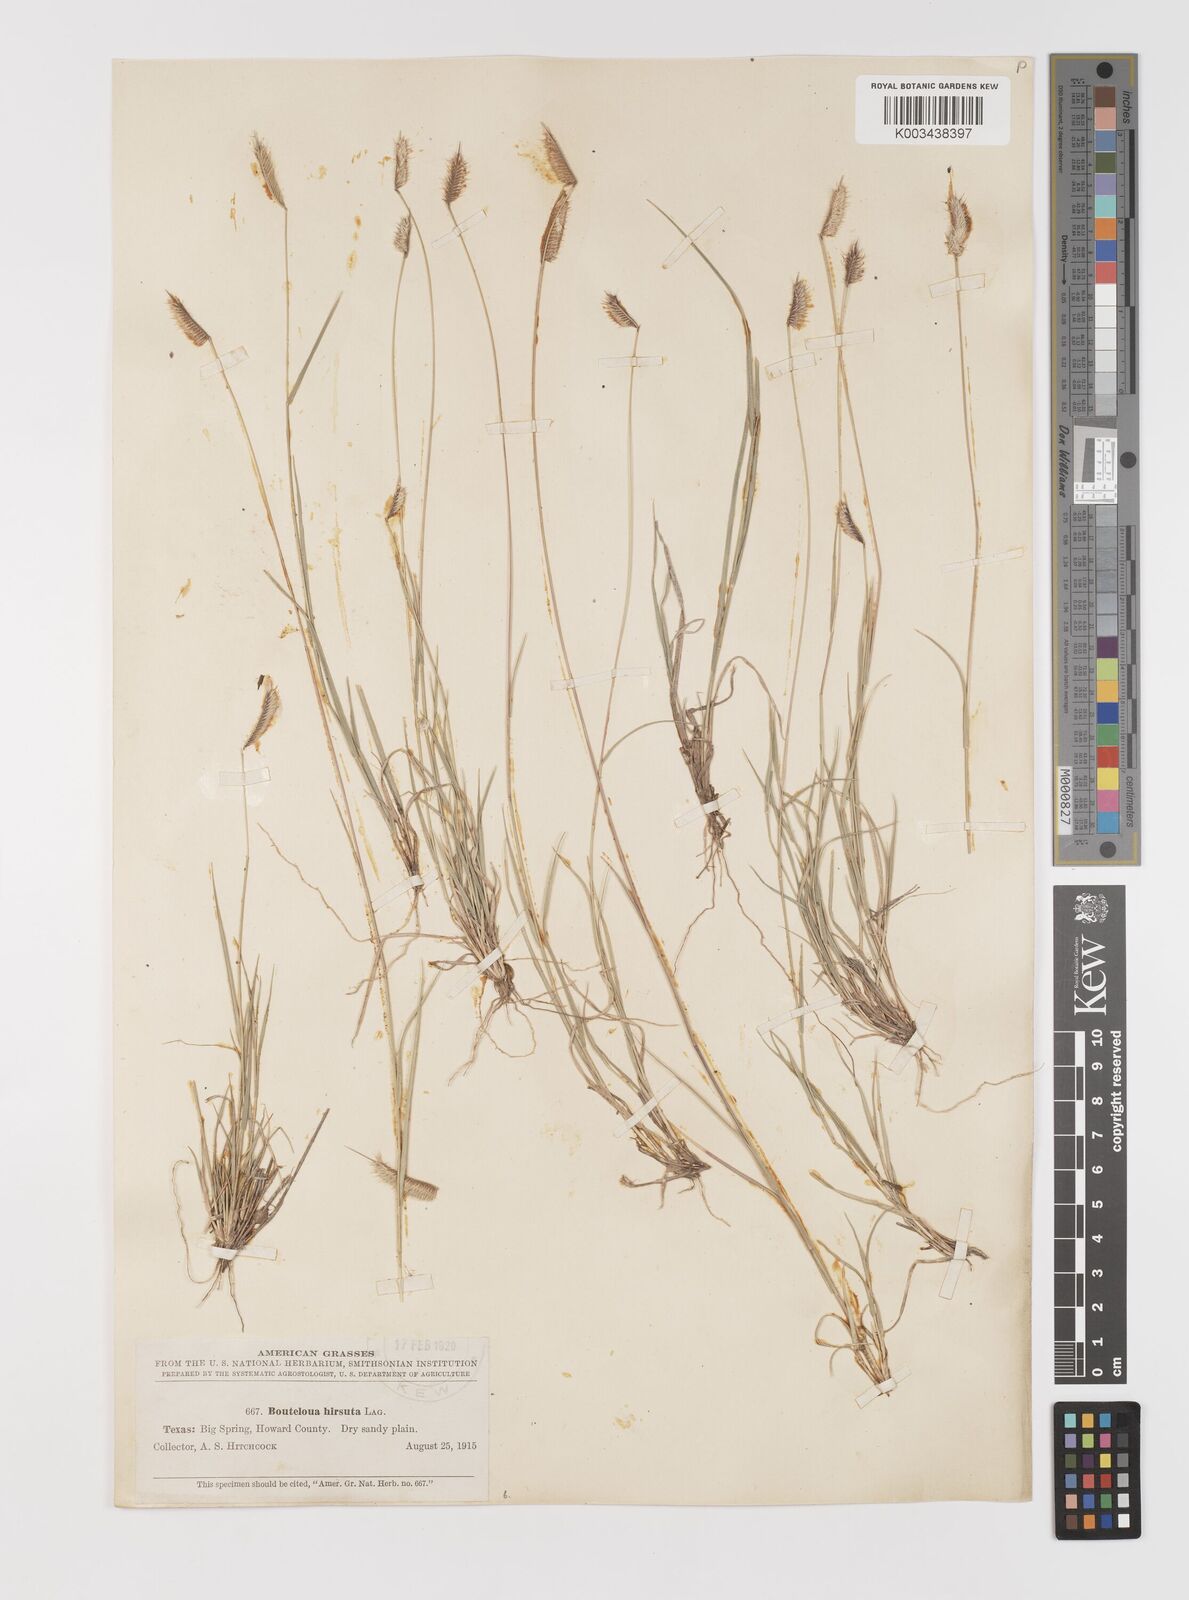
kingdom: Plantae
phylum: Tracheophyta
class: Liliopsida
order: Poales
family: Poaceae
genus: Bouteloua
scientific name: Bouteloua hirsuta
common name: Hairy grama
